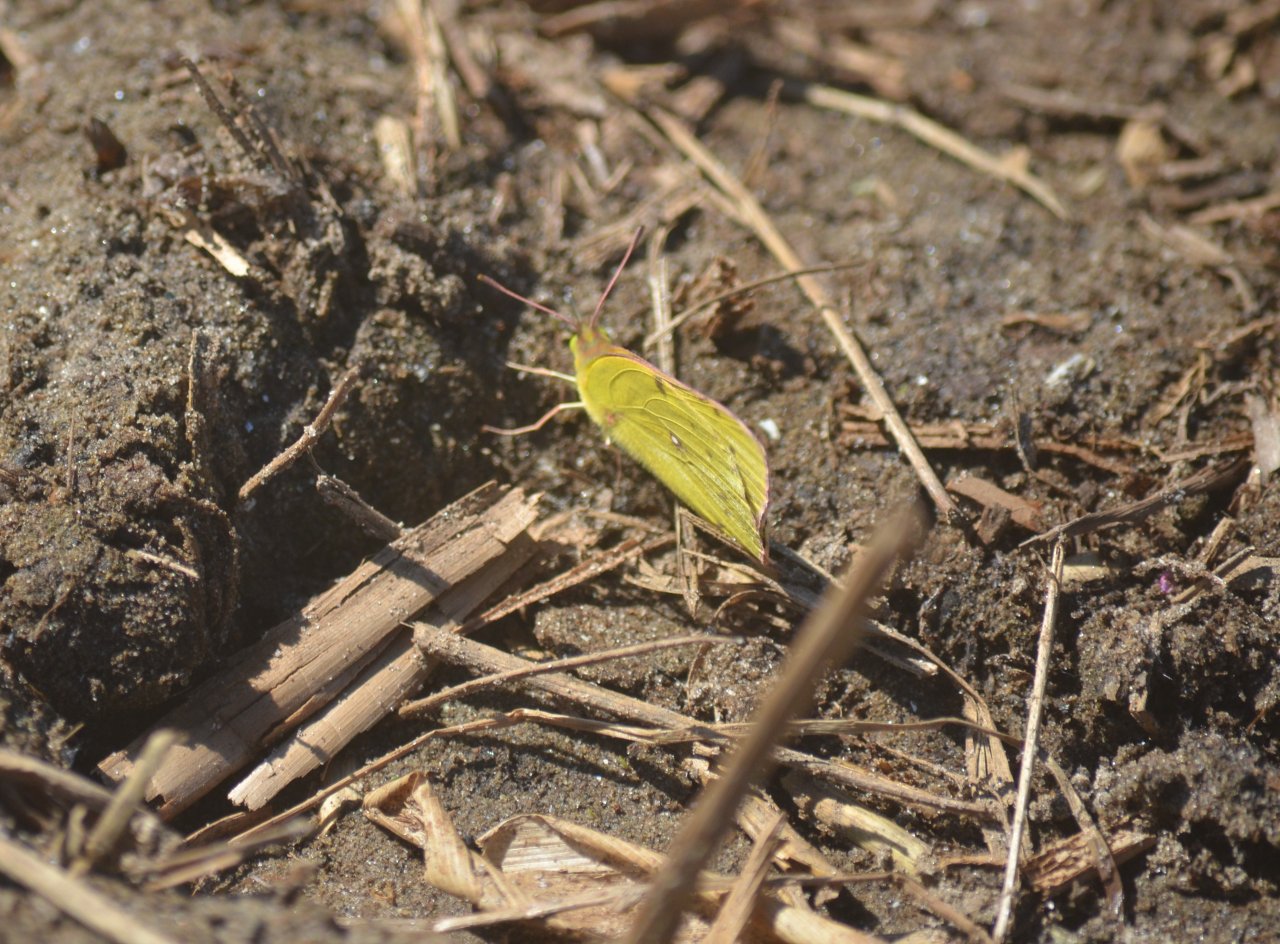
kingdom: Animalia
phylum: Arthropoda
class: Insecta
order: Lepidoptera
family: Pieridae
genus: Colias
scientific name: Colias philodice
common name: Clouded Sulphur
